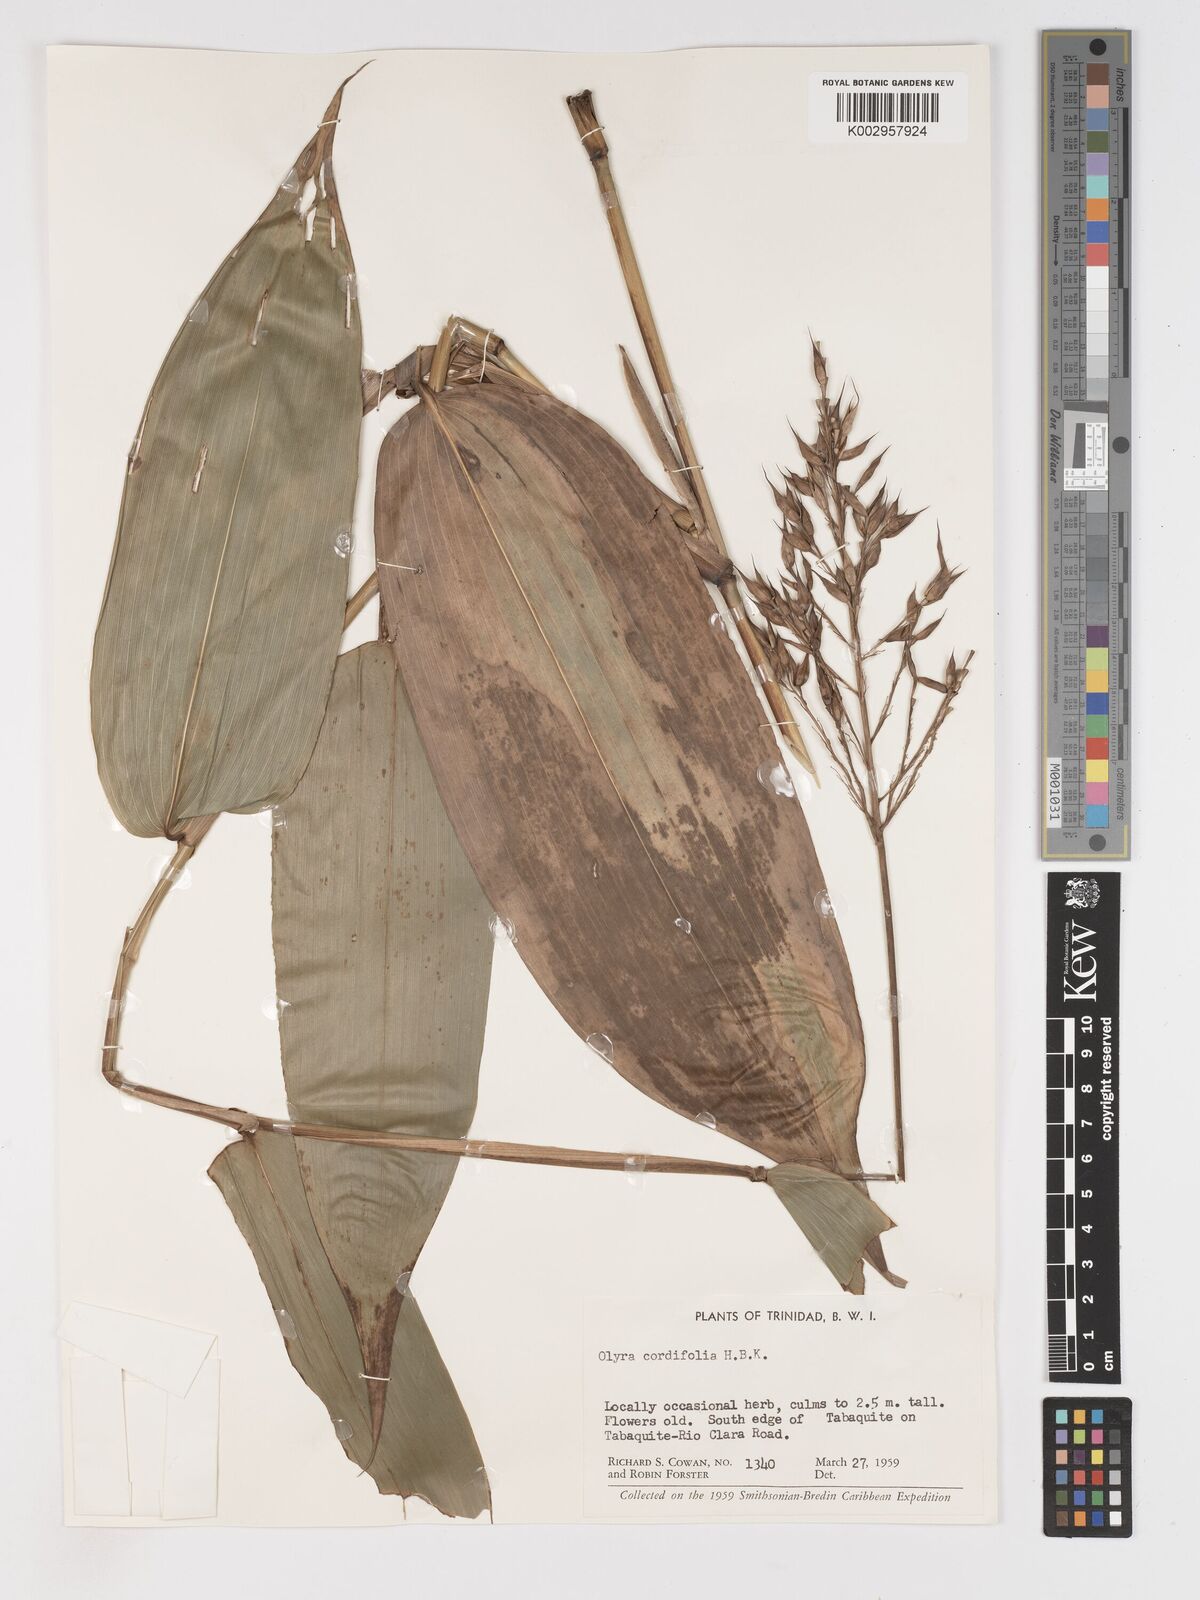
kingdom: Plantae
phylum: Tracheophyta
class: Liliopsida
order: Poales
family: Poaceae
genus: Olyra
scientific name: Olyra latifolia
